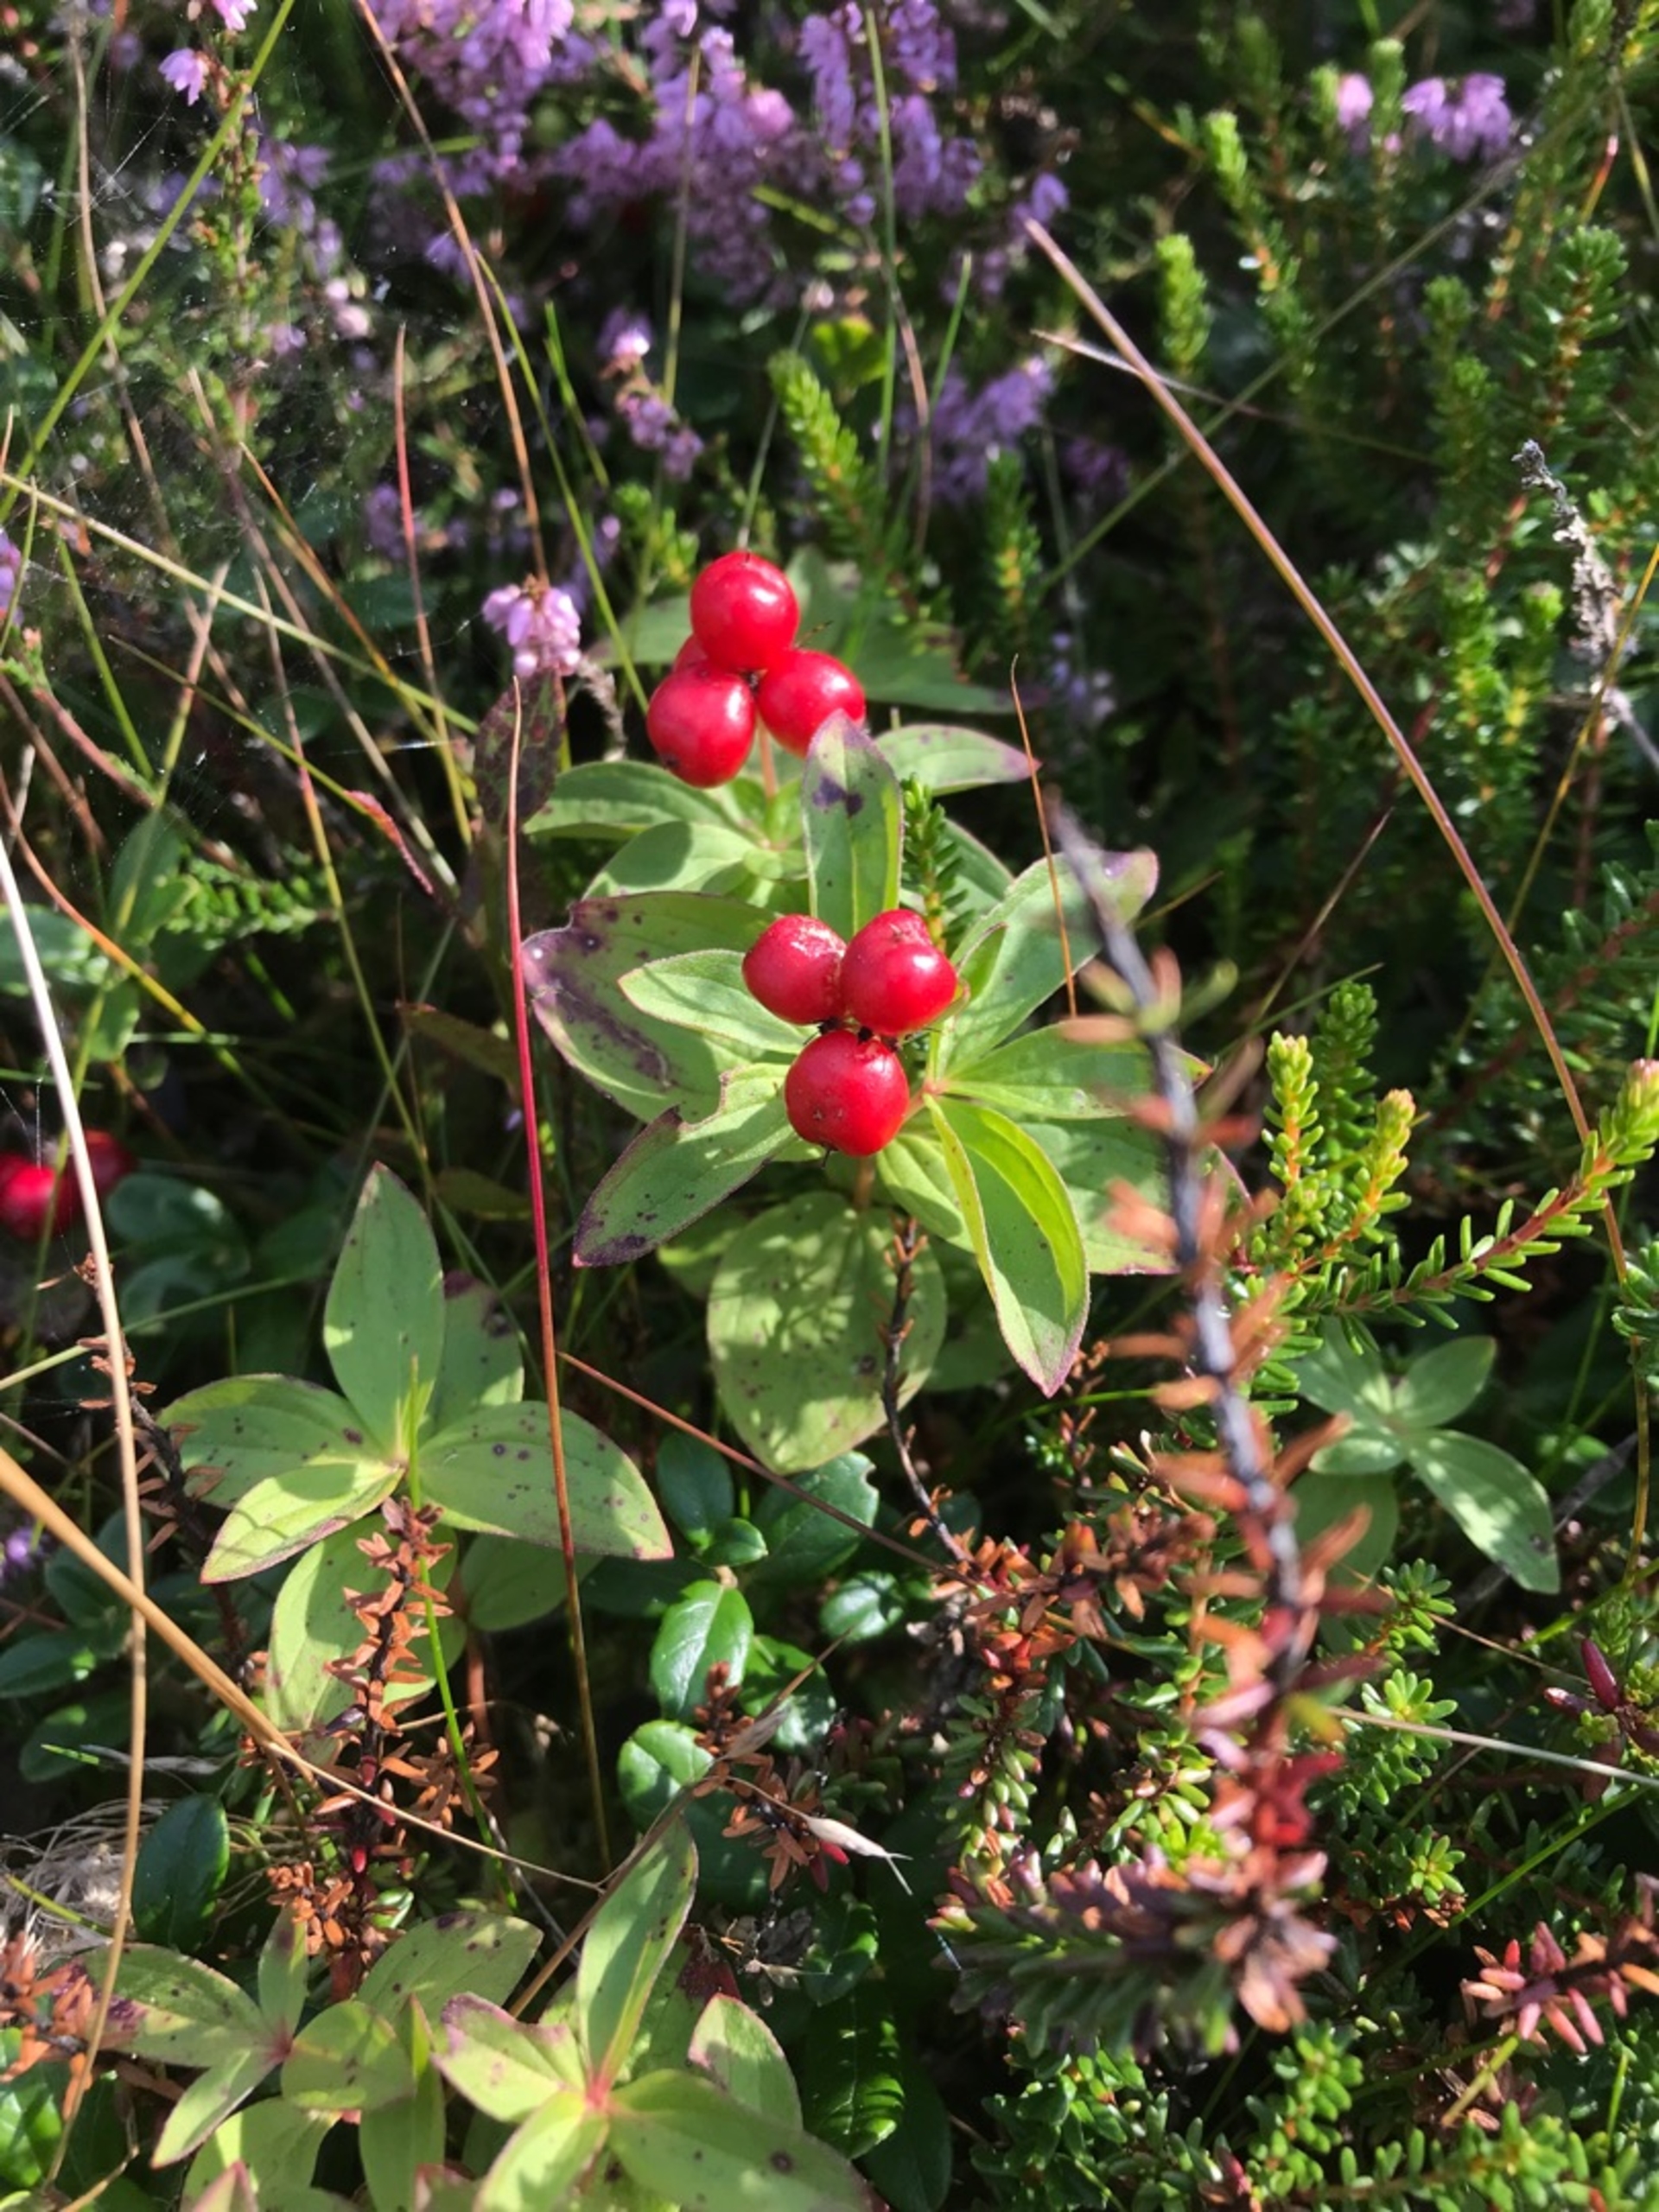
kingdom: Plantae
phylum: Tracheophyta
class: Magnoliopsida
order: Cornales
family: Cornaceae
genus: Cornus
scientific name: Cornus suecica
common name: Hønsebær
